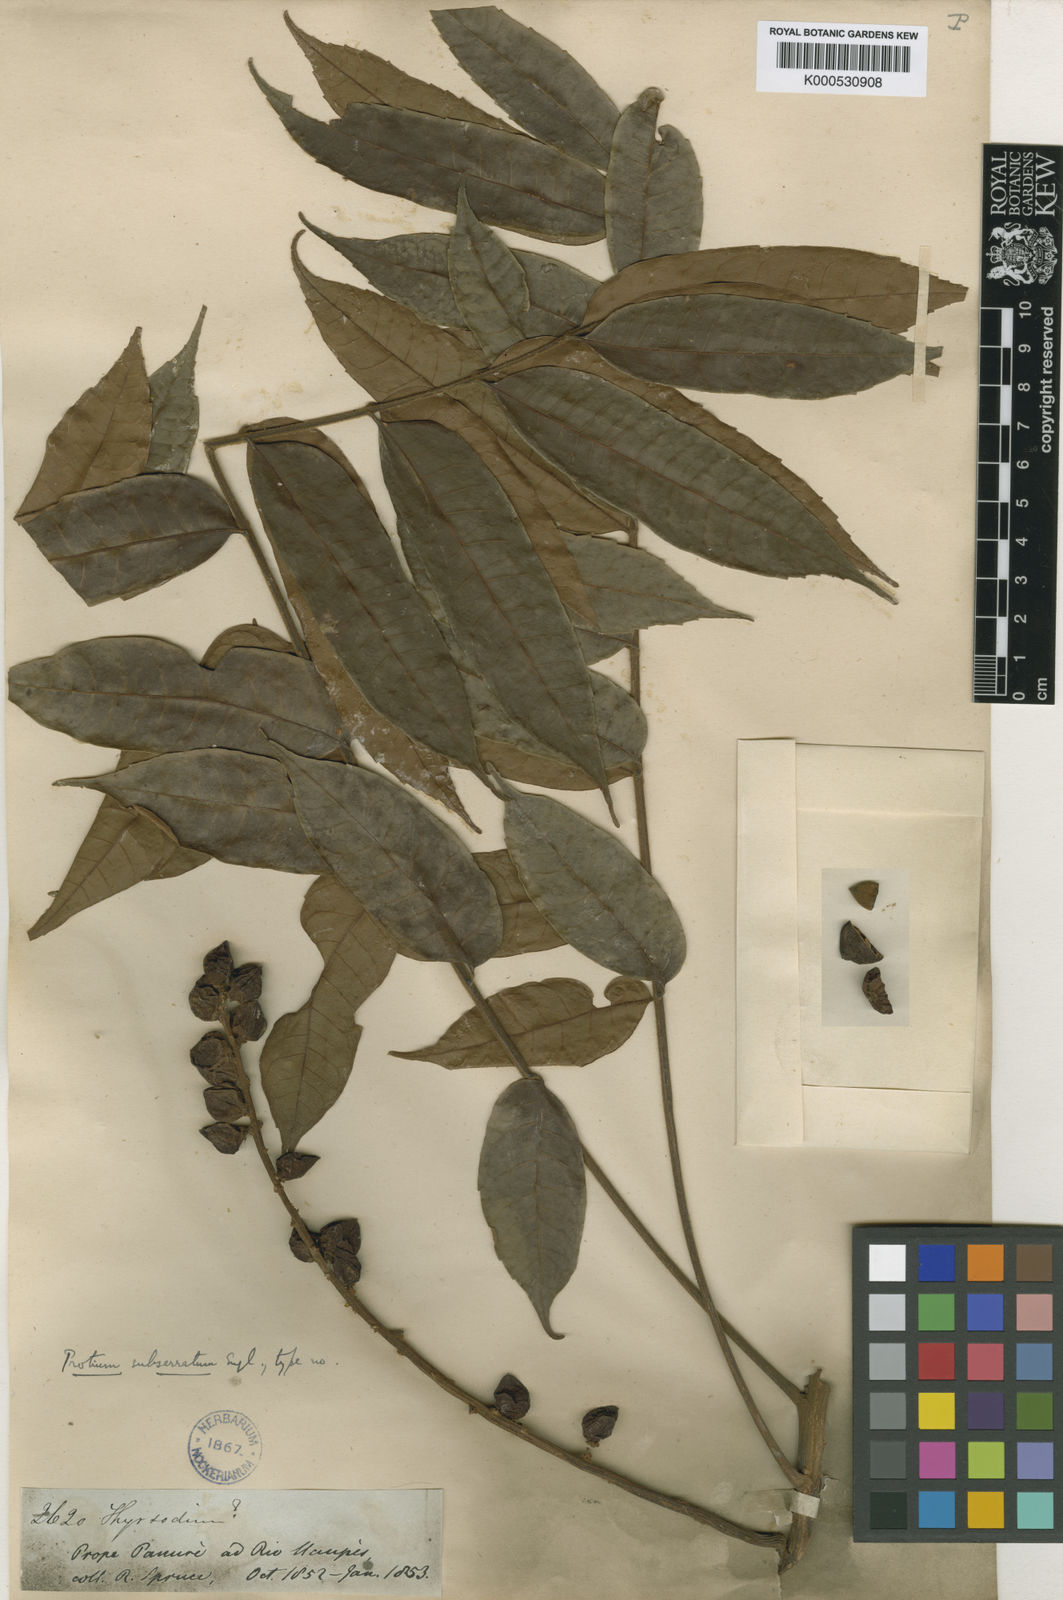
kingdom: Plantae
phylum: Tracheophyta
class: Magnoliopsida
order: Sapindales
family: Burseraceae
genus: Protium
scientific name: Protium subserratum
